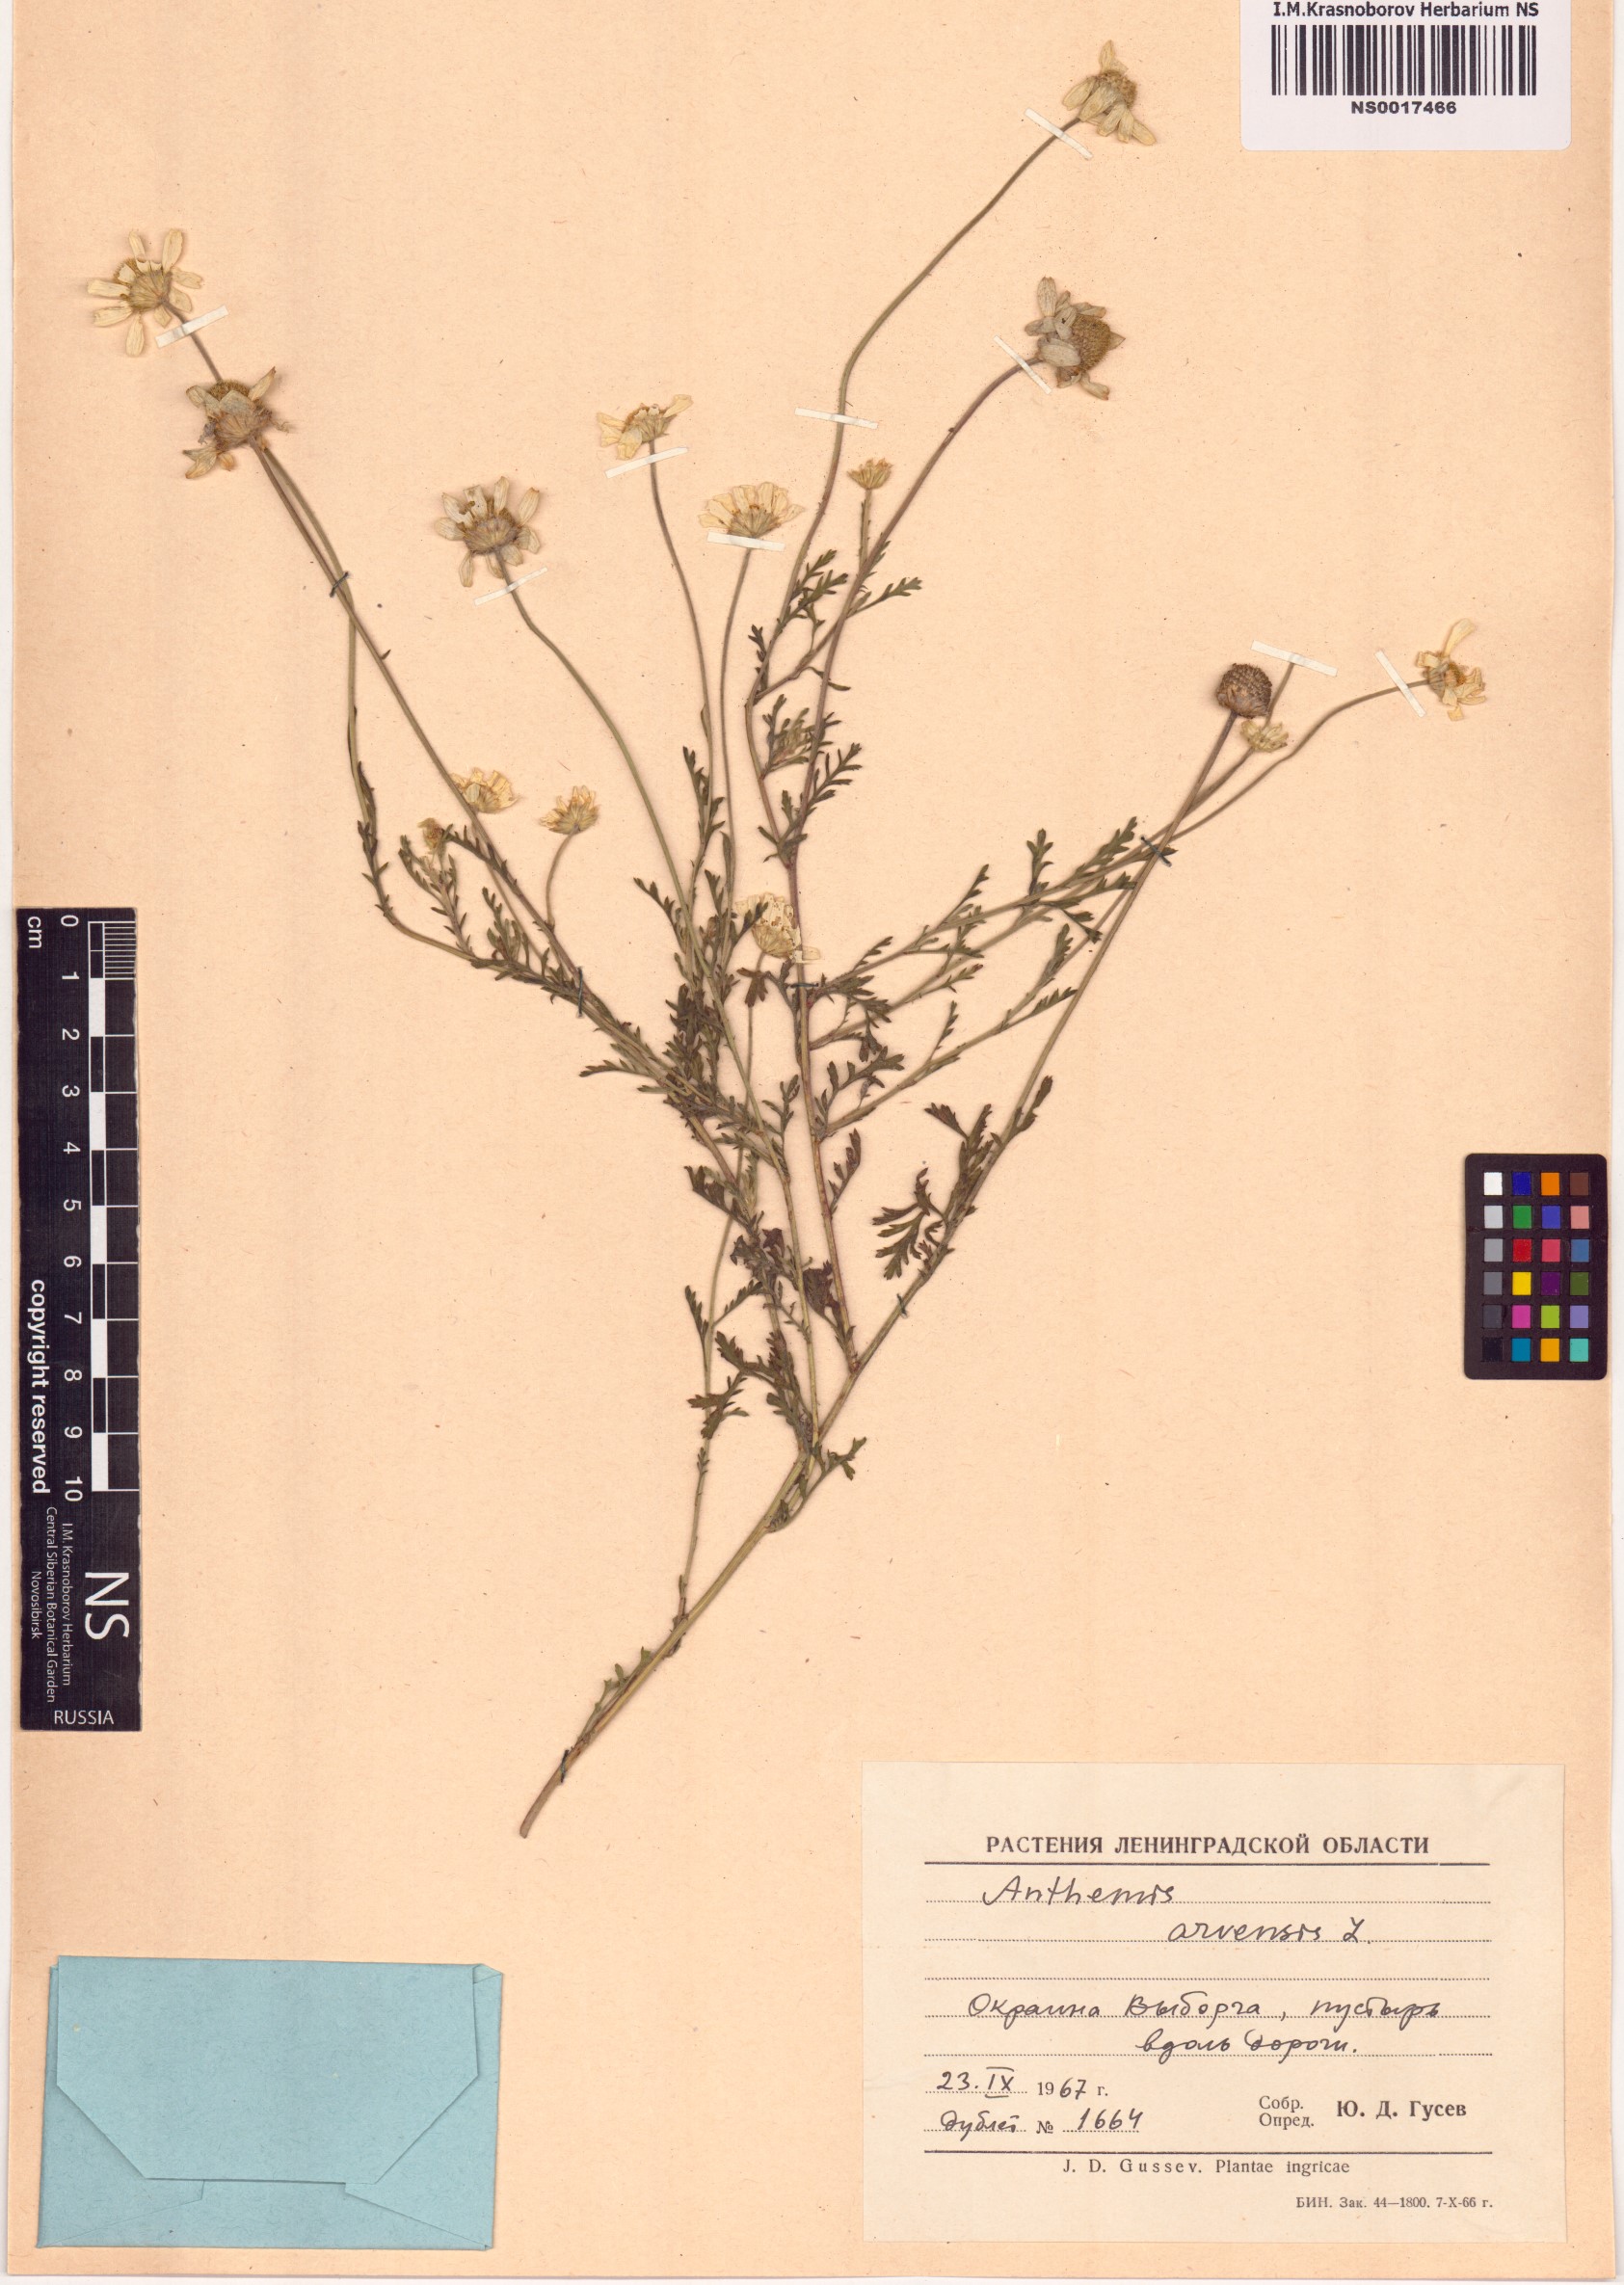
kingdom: Plantae
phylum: Tracheophyta
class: Magnoliopsida
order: Asterales
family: Asteraceae
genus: Anthemis
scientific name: Anthemis arvensis
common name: Corn chamomile
